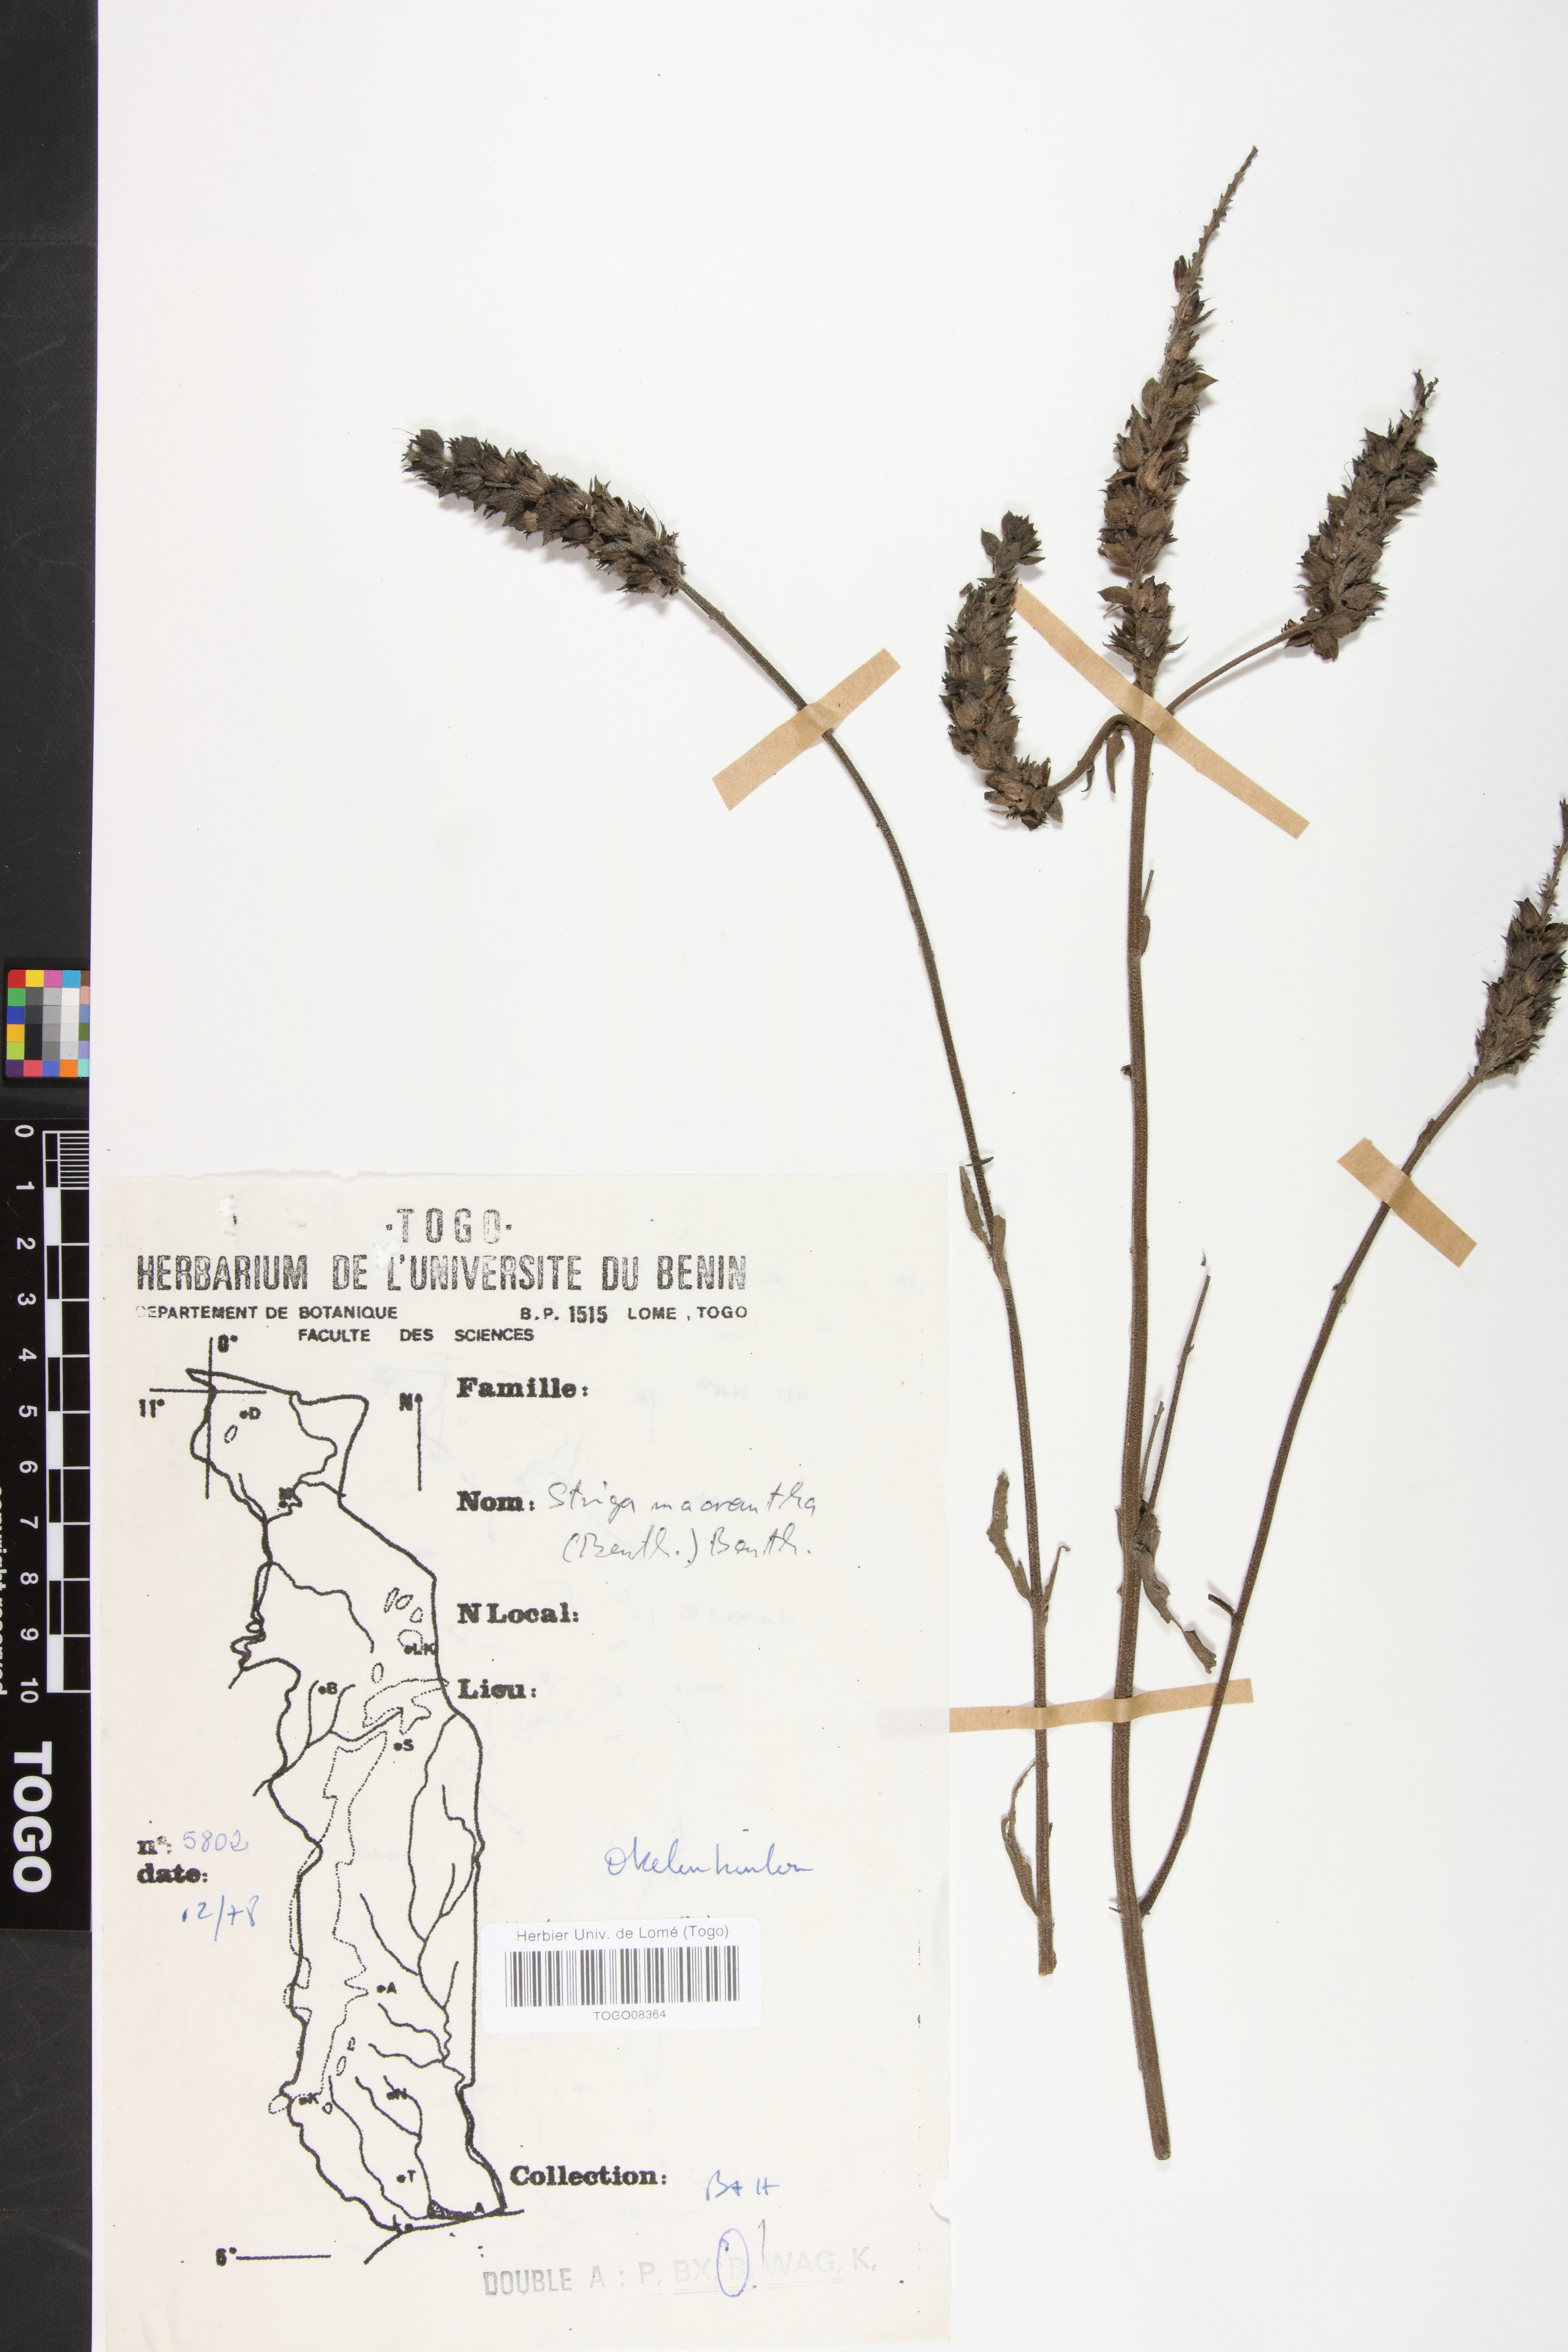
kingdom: Plantae
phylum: Tracheophyta
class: Magnoliopsida
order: Lamiales
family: Orobanchaceae
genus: Striga
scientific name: Striga macrantha
